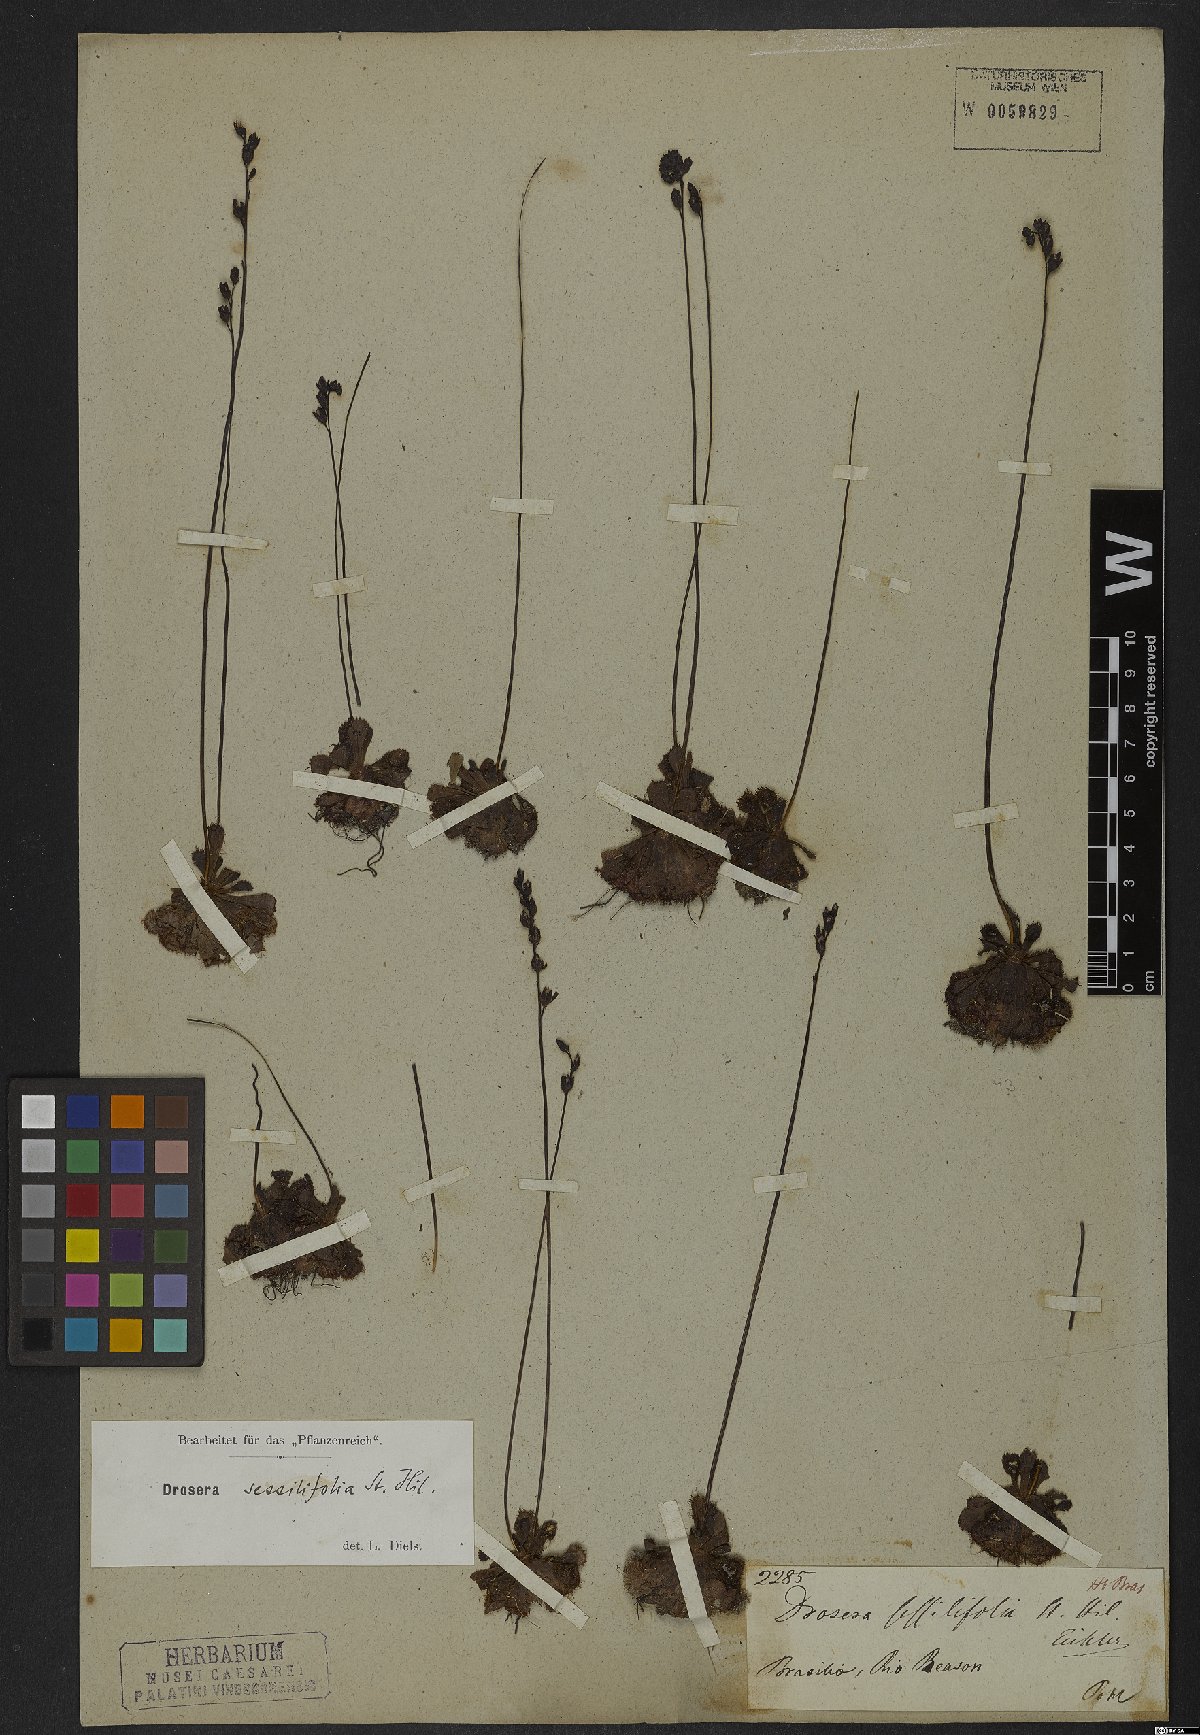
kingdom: Plantae
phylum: Tracheophyta
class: Magnoliopsida
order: Caryophyllales
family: Droseraceae
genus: Drosera
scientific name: Drosera sessilifolia
